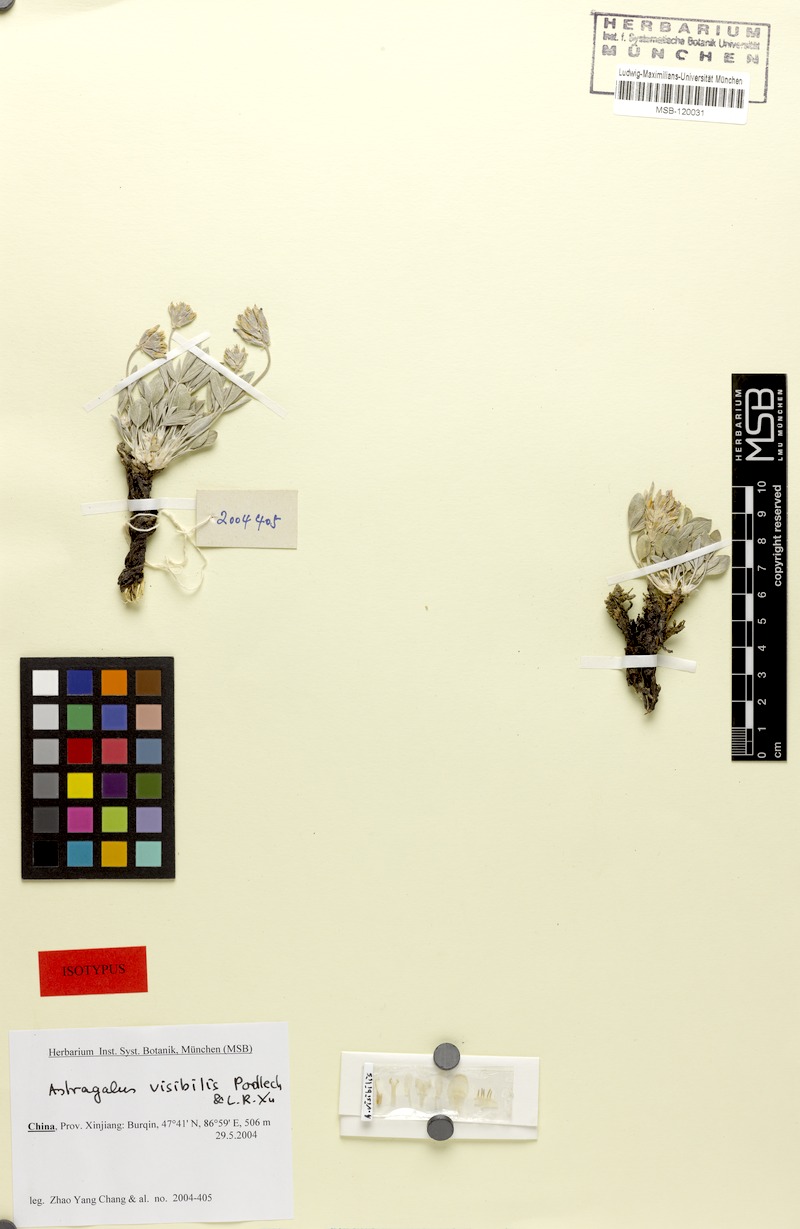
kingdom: Plantae
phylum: Tracheophyta
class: Magnoliopsida
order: Fabales
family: Fabaceae
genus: Astragalus
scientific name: Astragalus visibilis
